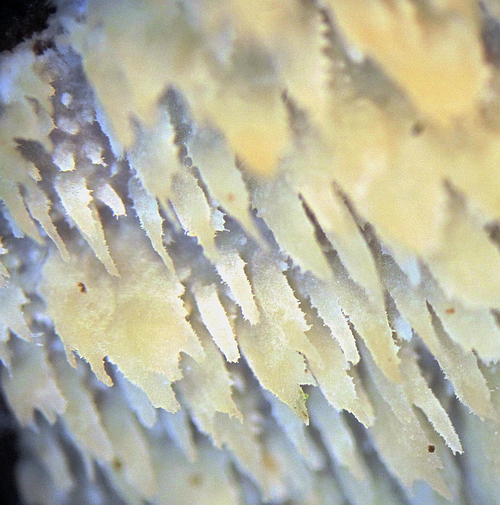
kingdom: Fungi
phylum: Basidiomycota
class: Agaricomycetes
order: Polyporales
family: Steccherinaceae
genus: Steccherinum
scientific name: Steccherinum oreophilum
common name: kvist-skønpig
